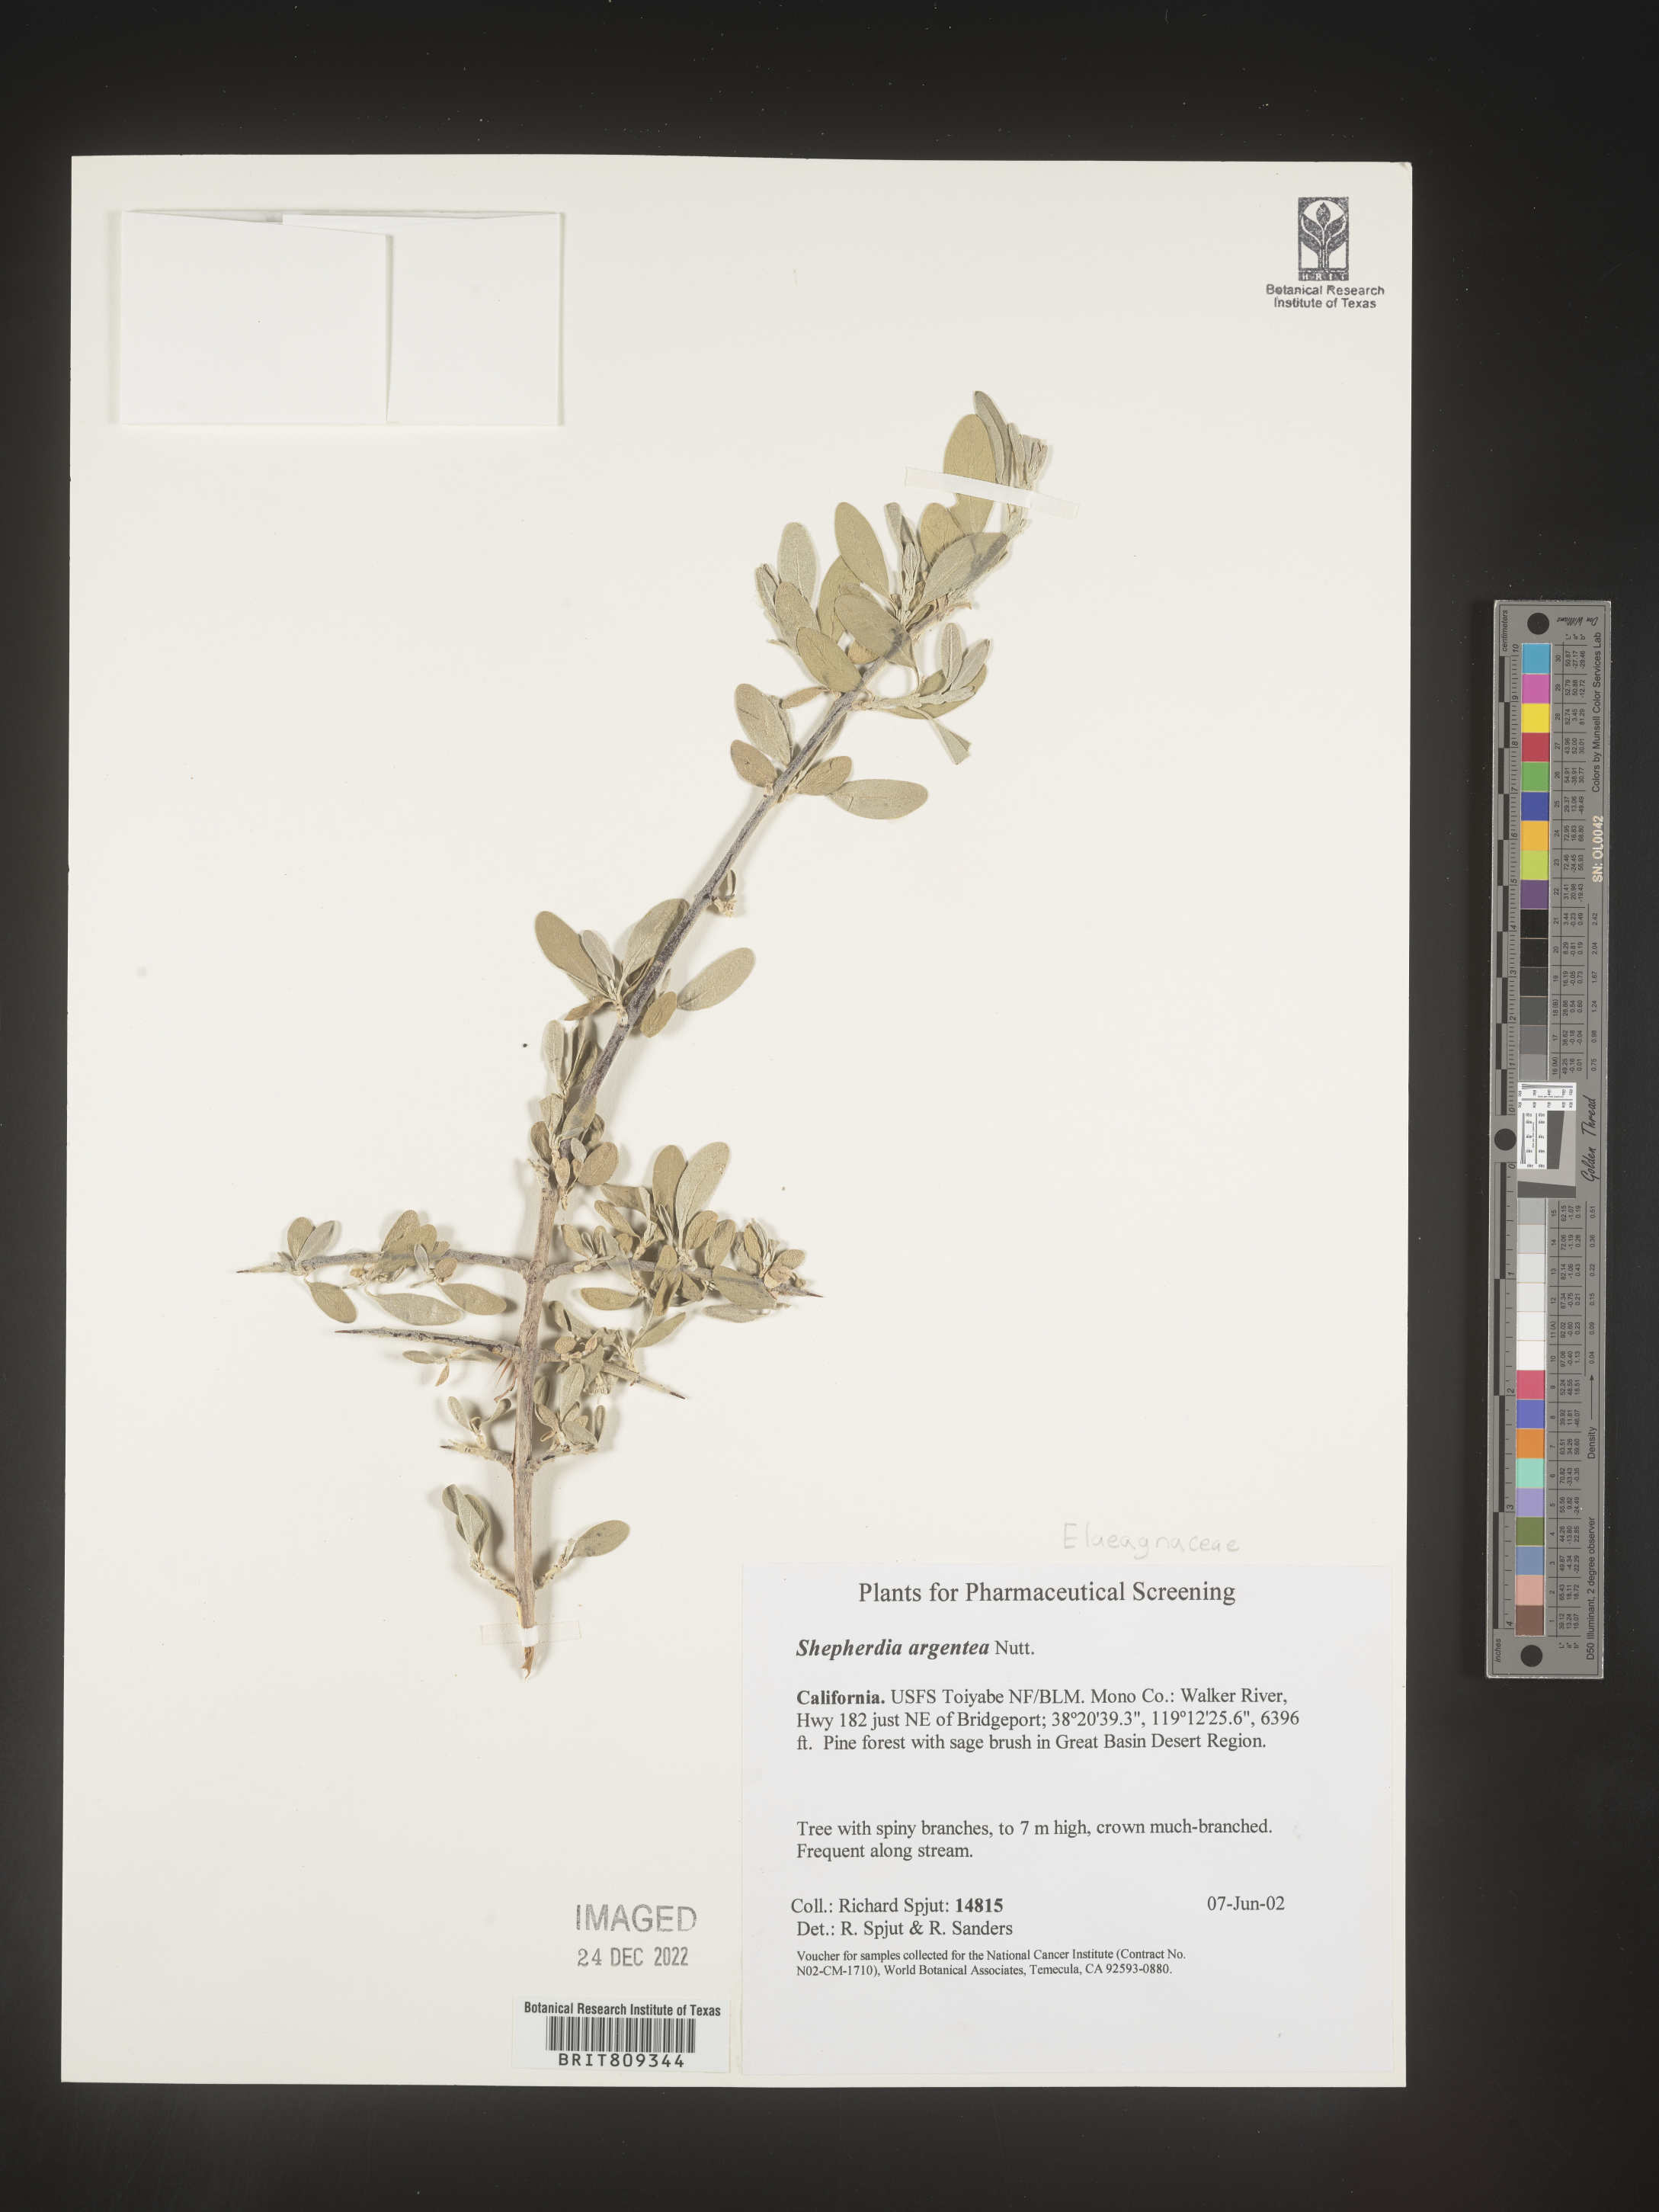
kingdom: Plantae
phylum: Tracheophyta
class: Magnoliopsida
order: Rosales
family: Elaeagnaceae
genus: Shepherdia
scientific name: Shepherdia argentea
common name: Silver buffaloberry
